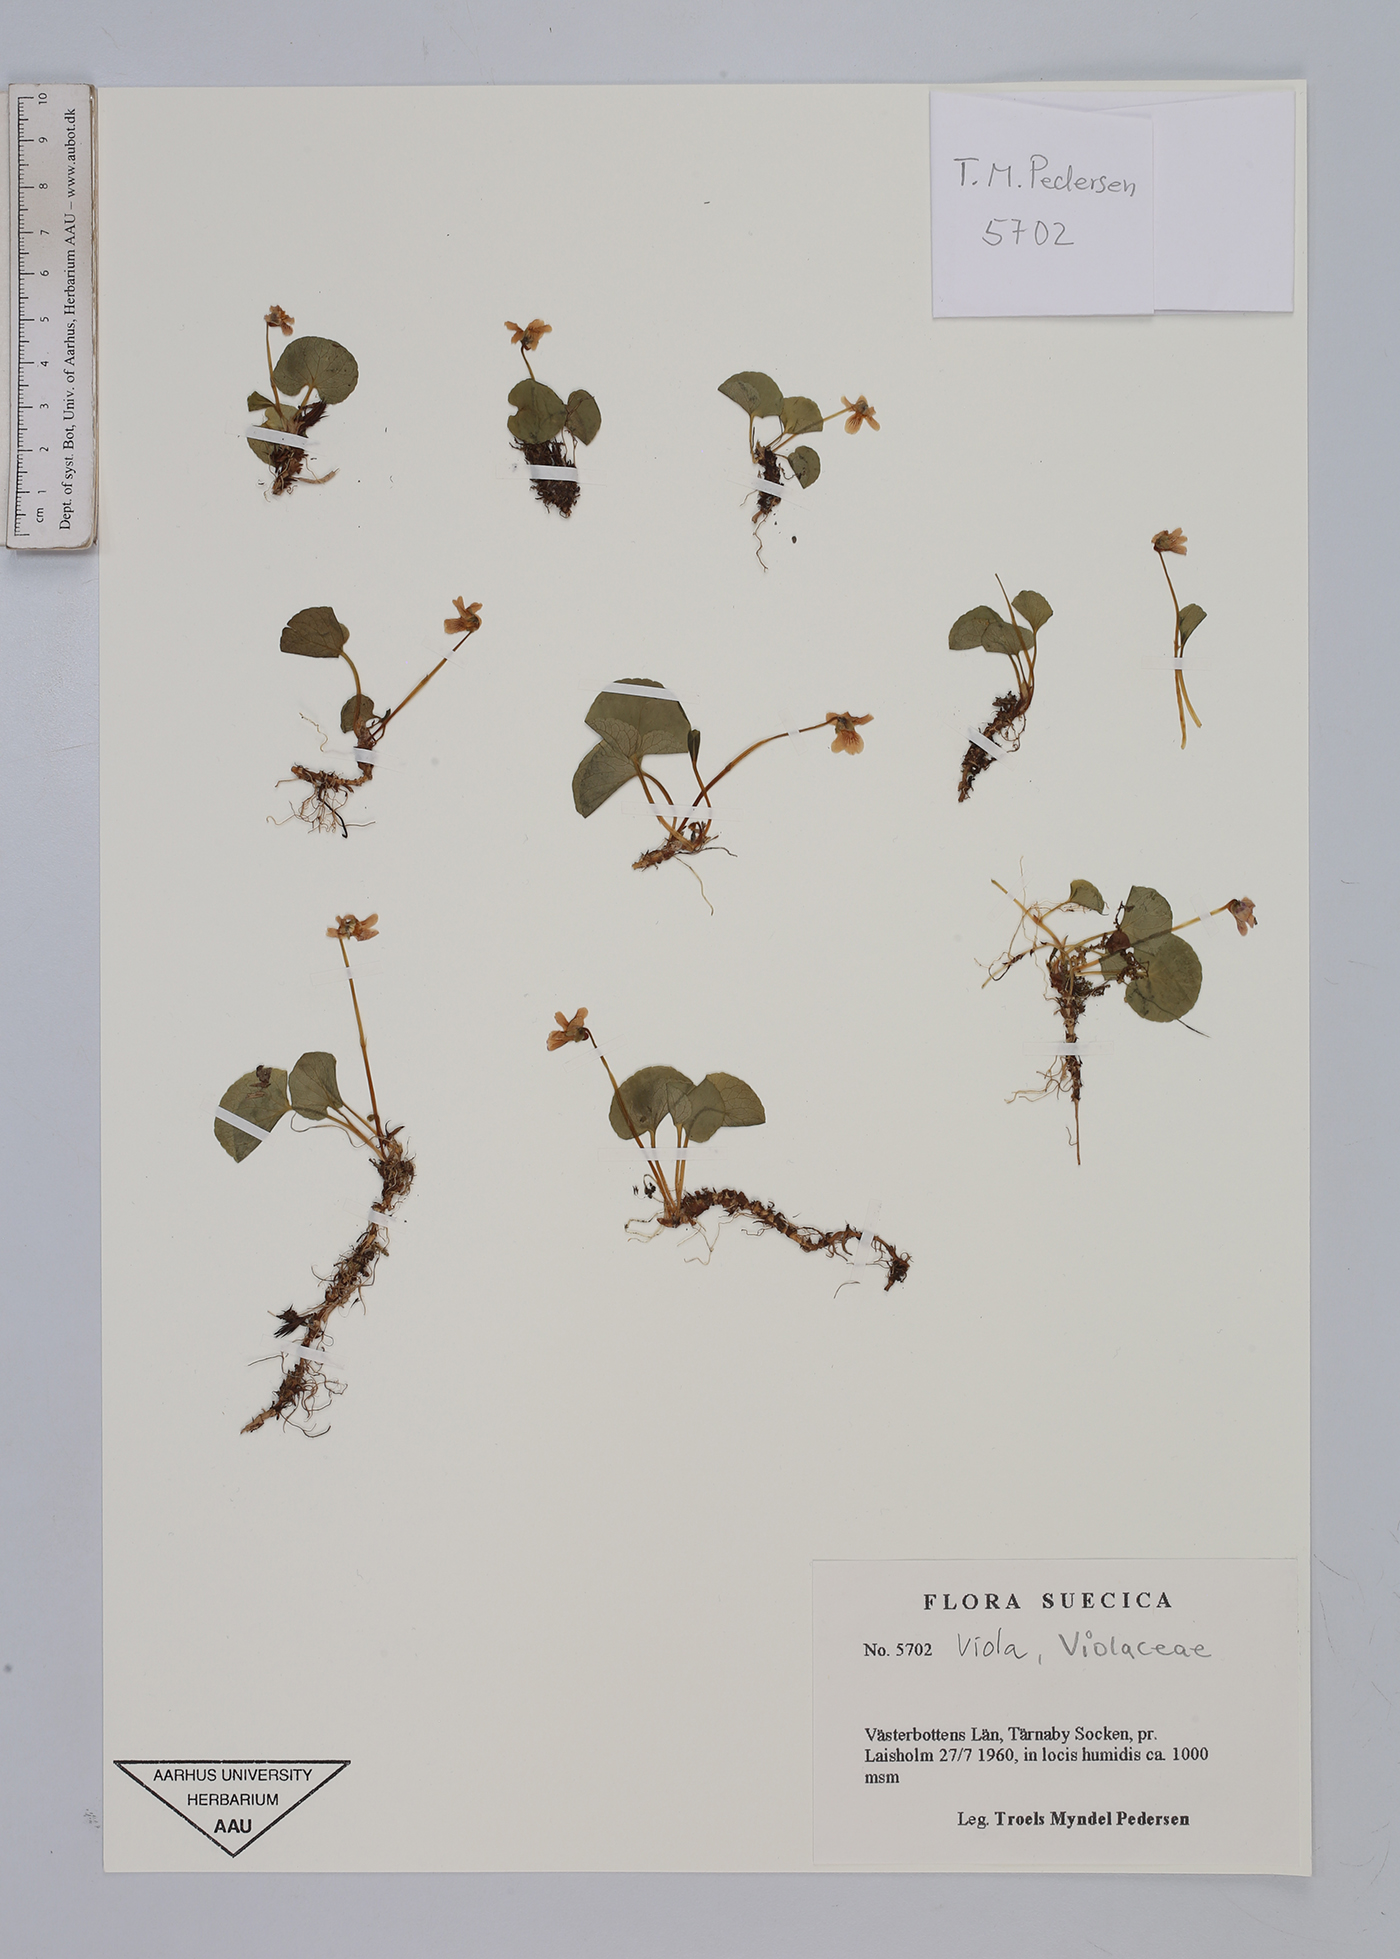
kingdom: Plantae
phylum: Tracheophyta
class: Magnoliopsida
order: Malpighiales
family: Violaceae
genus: Viola
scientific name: Viola
